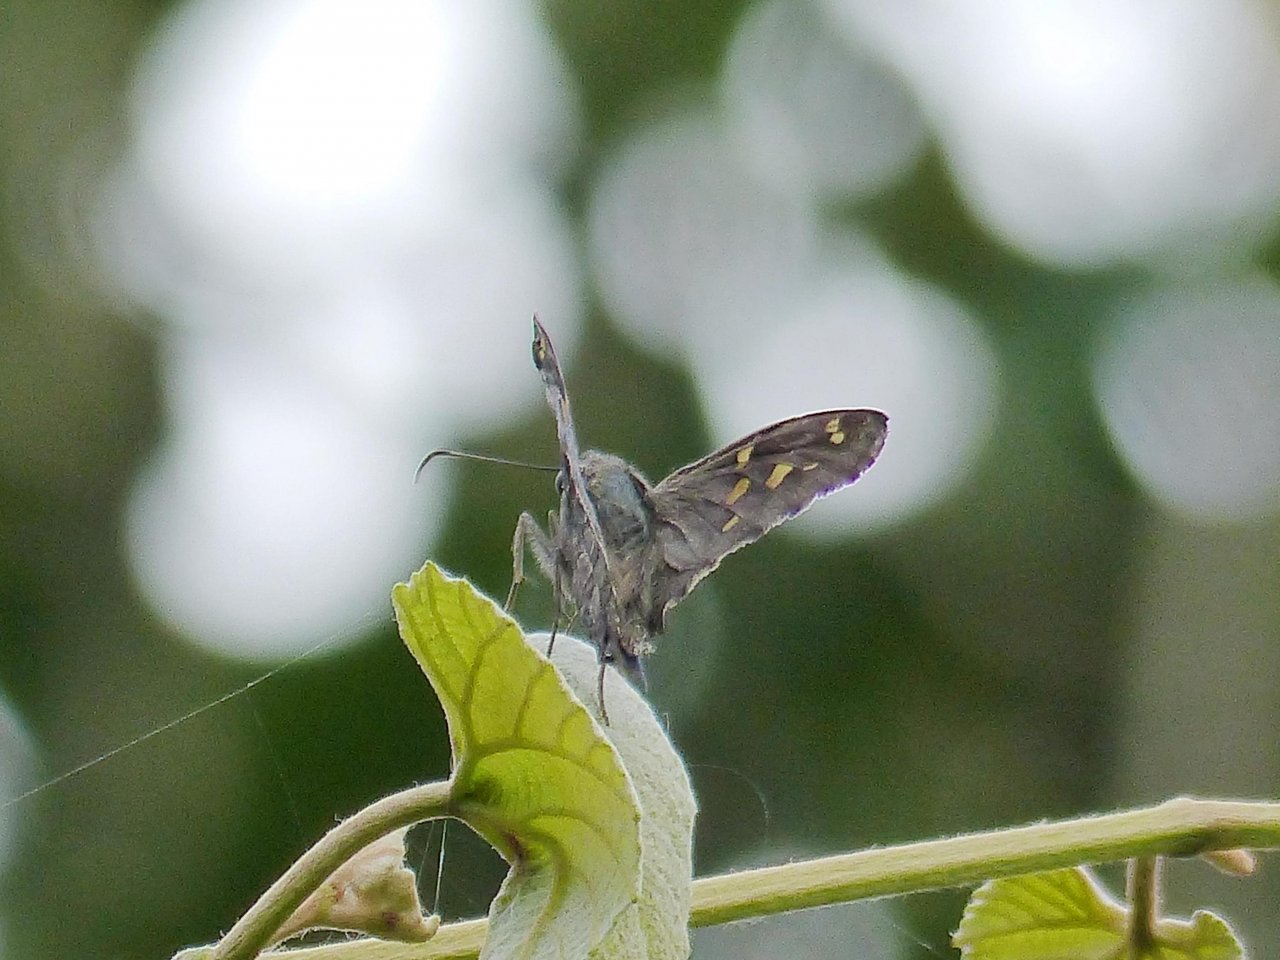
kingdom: Animalia
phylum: Arthropoda
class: Insecta
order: Lepidoptera
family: Hesperiidae
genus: Urbanus
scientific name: Urbanus dorantes
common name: Dorantes Longtail
